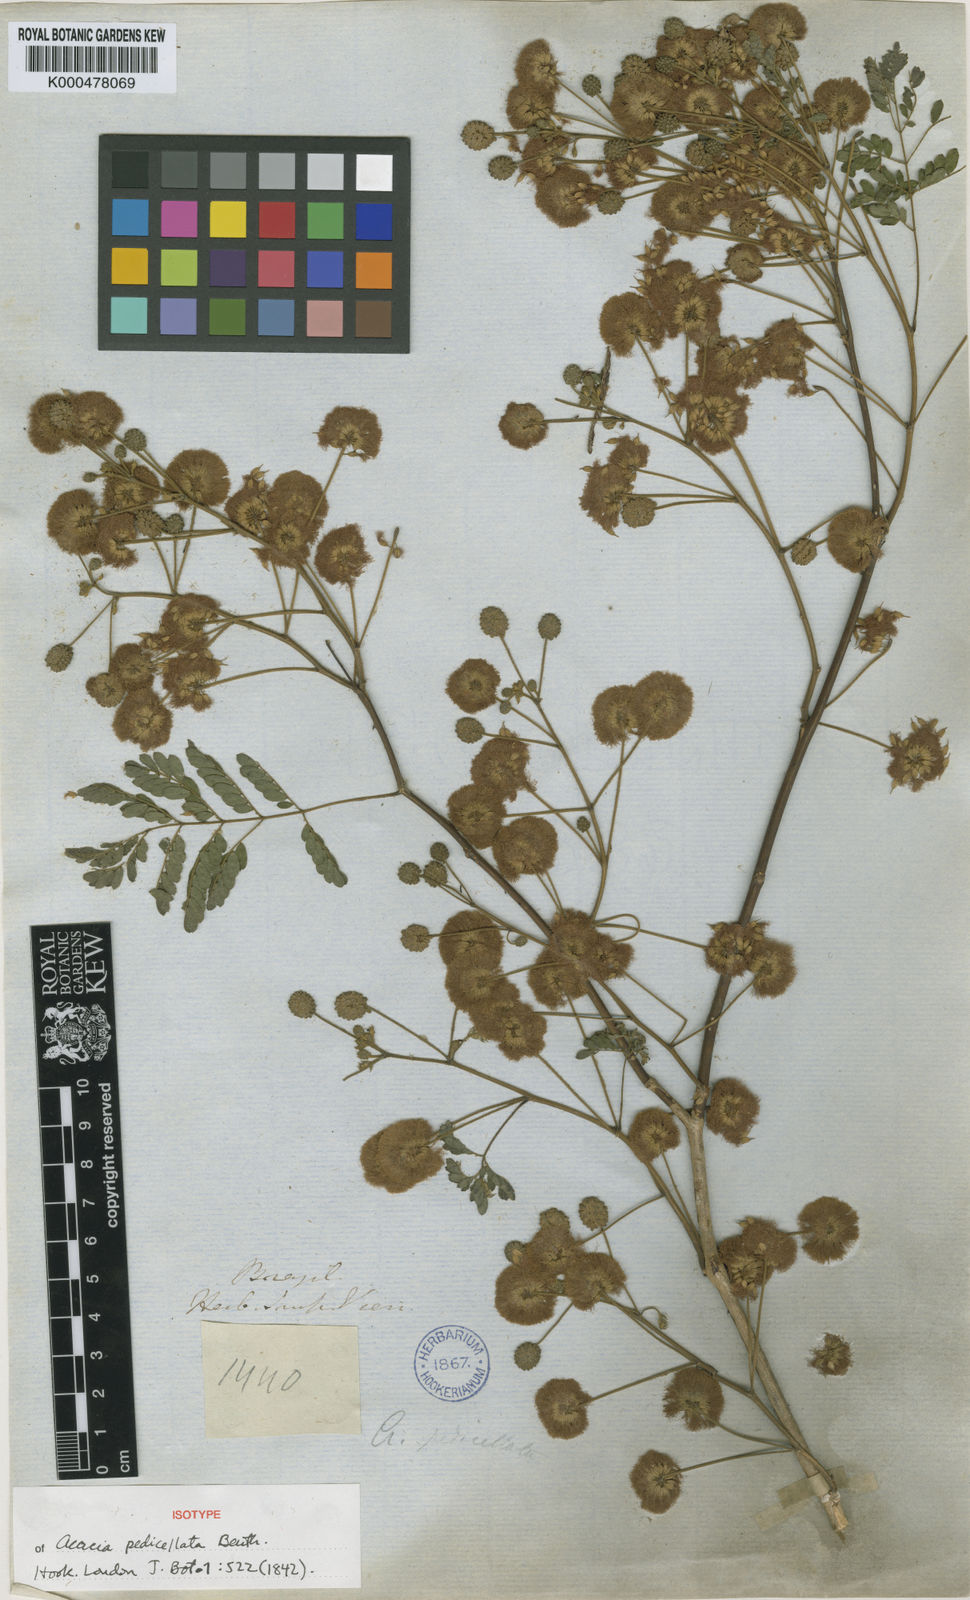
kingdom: Plantae
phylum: Tracheophyta
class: Magnoliopsida
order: Fabales
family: Fabaceae
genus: Senegalia
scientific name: Senegalia pedicellata
